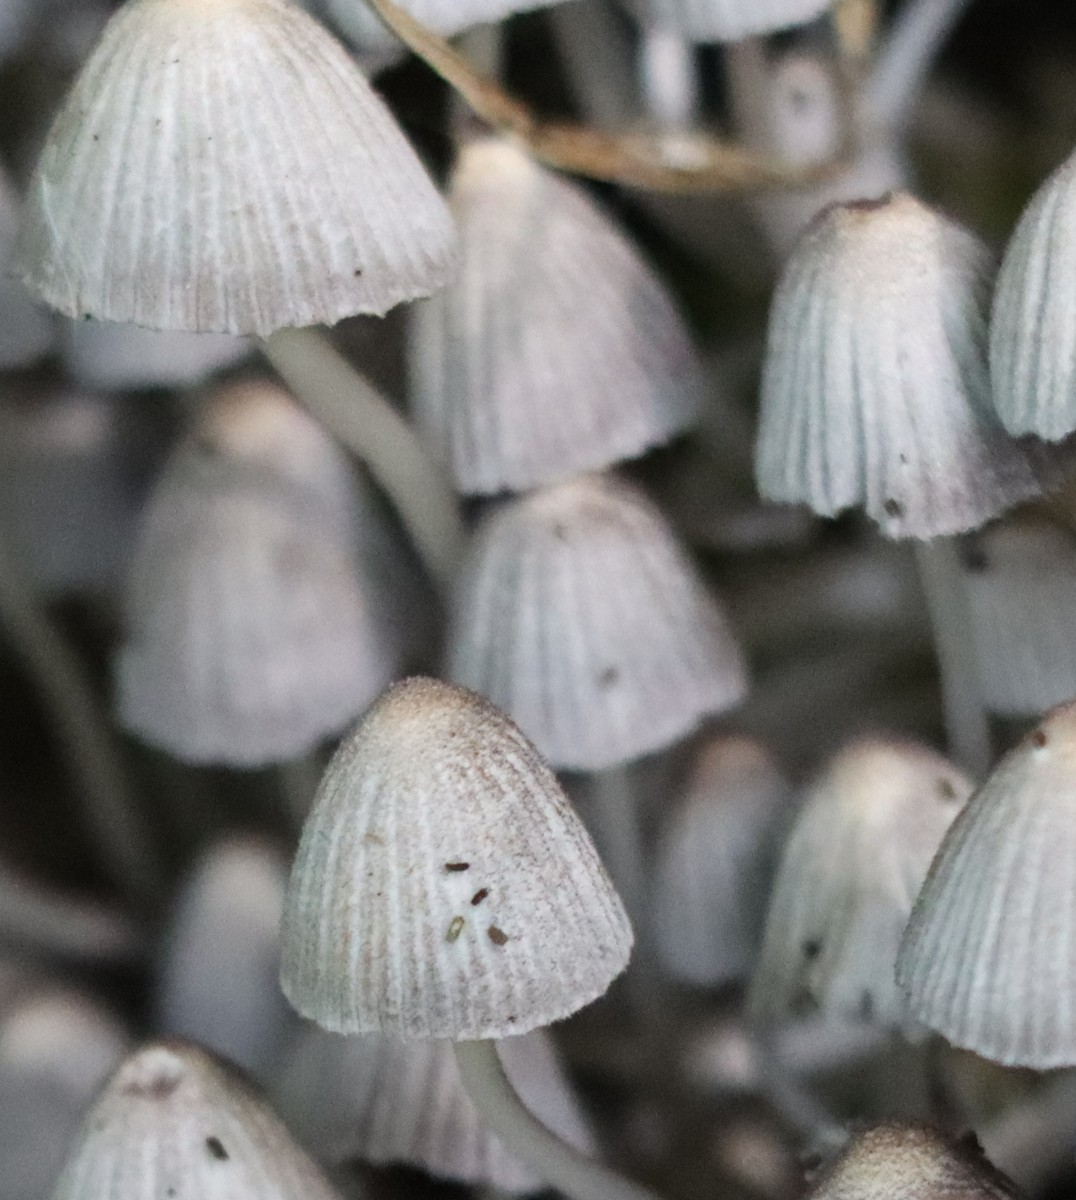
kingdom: Fungi
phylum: Basidiomycota
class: Agaricomycetes
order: Agaricales
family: Psathyrellaceae
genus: Coprinellus
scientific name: Coprinellus disseminatus
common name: bredsået blækhat
